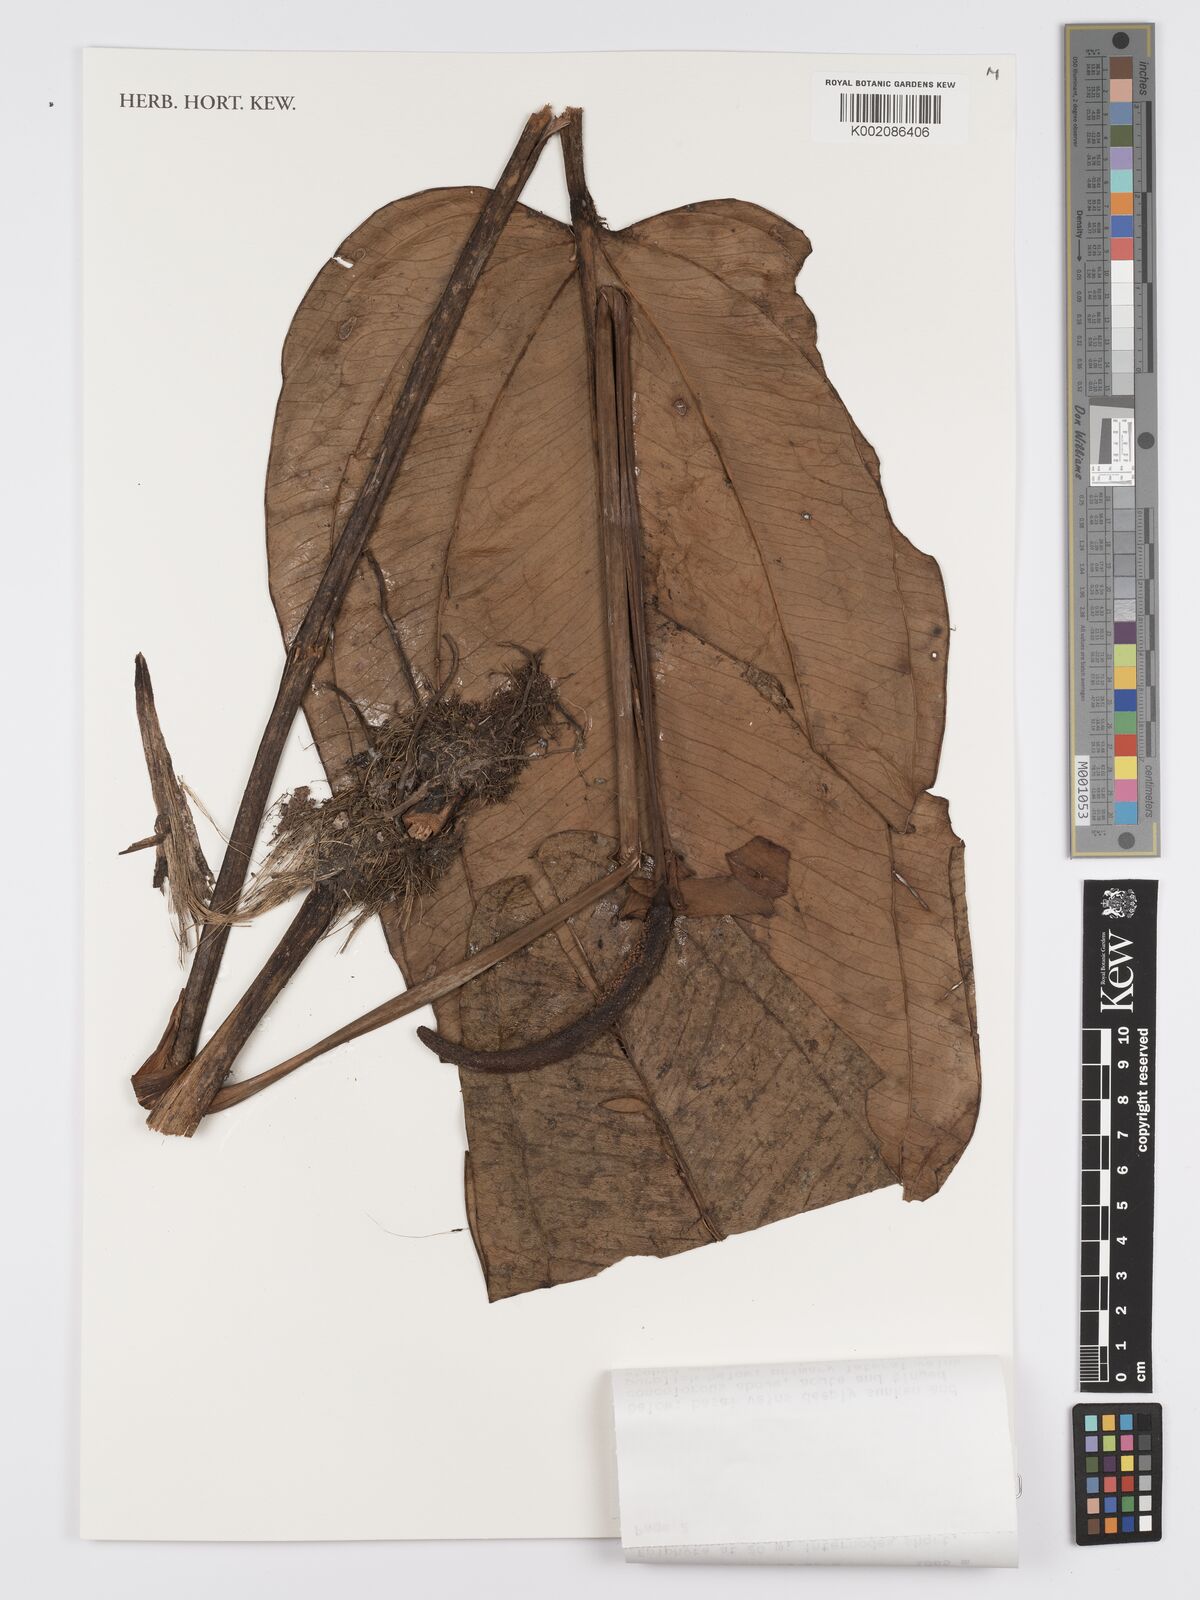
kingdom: Plantae
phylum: Tracheophyta
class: Liliopsida
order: Alismatales
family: Araceae
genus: Anthurium
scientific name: Anthurium lingua
